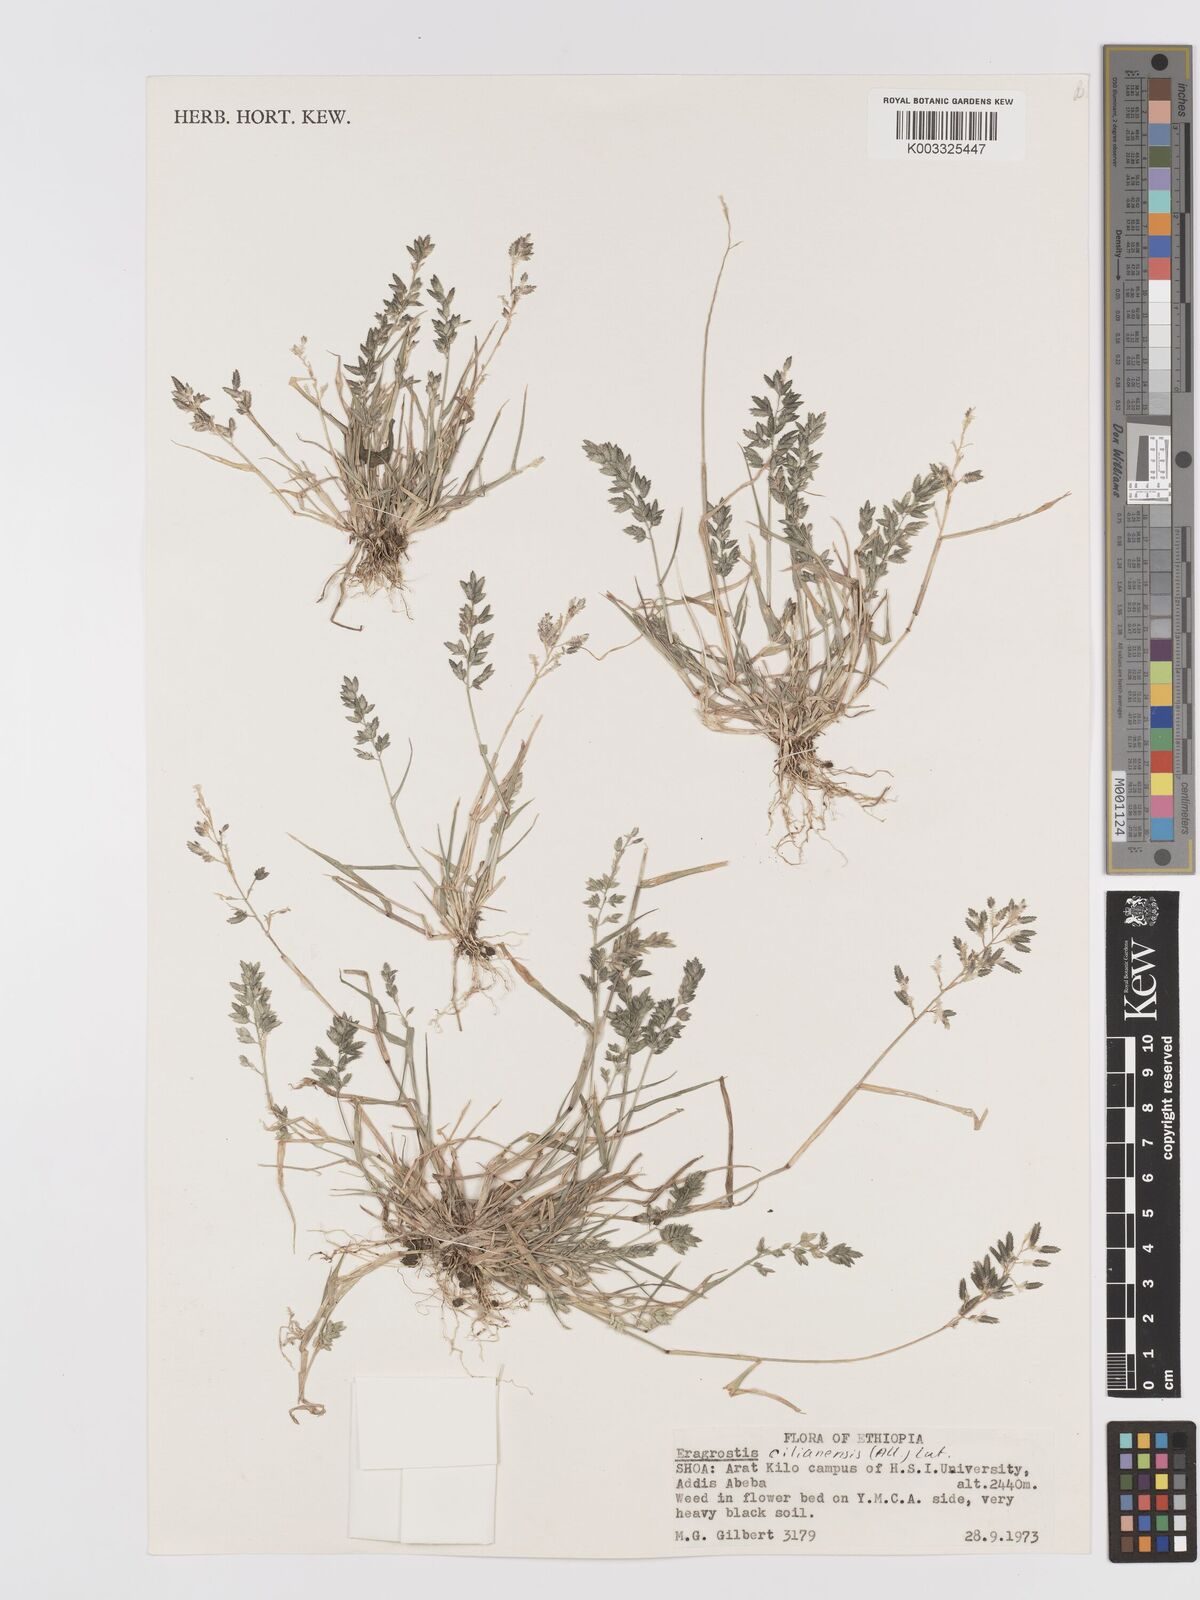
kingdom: Plantae
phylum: Tracheophyta
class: Liliopsida
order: Poales
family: Poaceae
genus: Eragrostis
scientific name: Eragrostis cilianensis
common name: Stinkgrass
